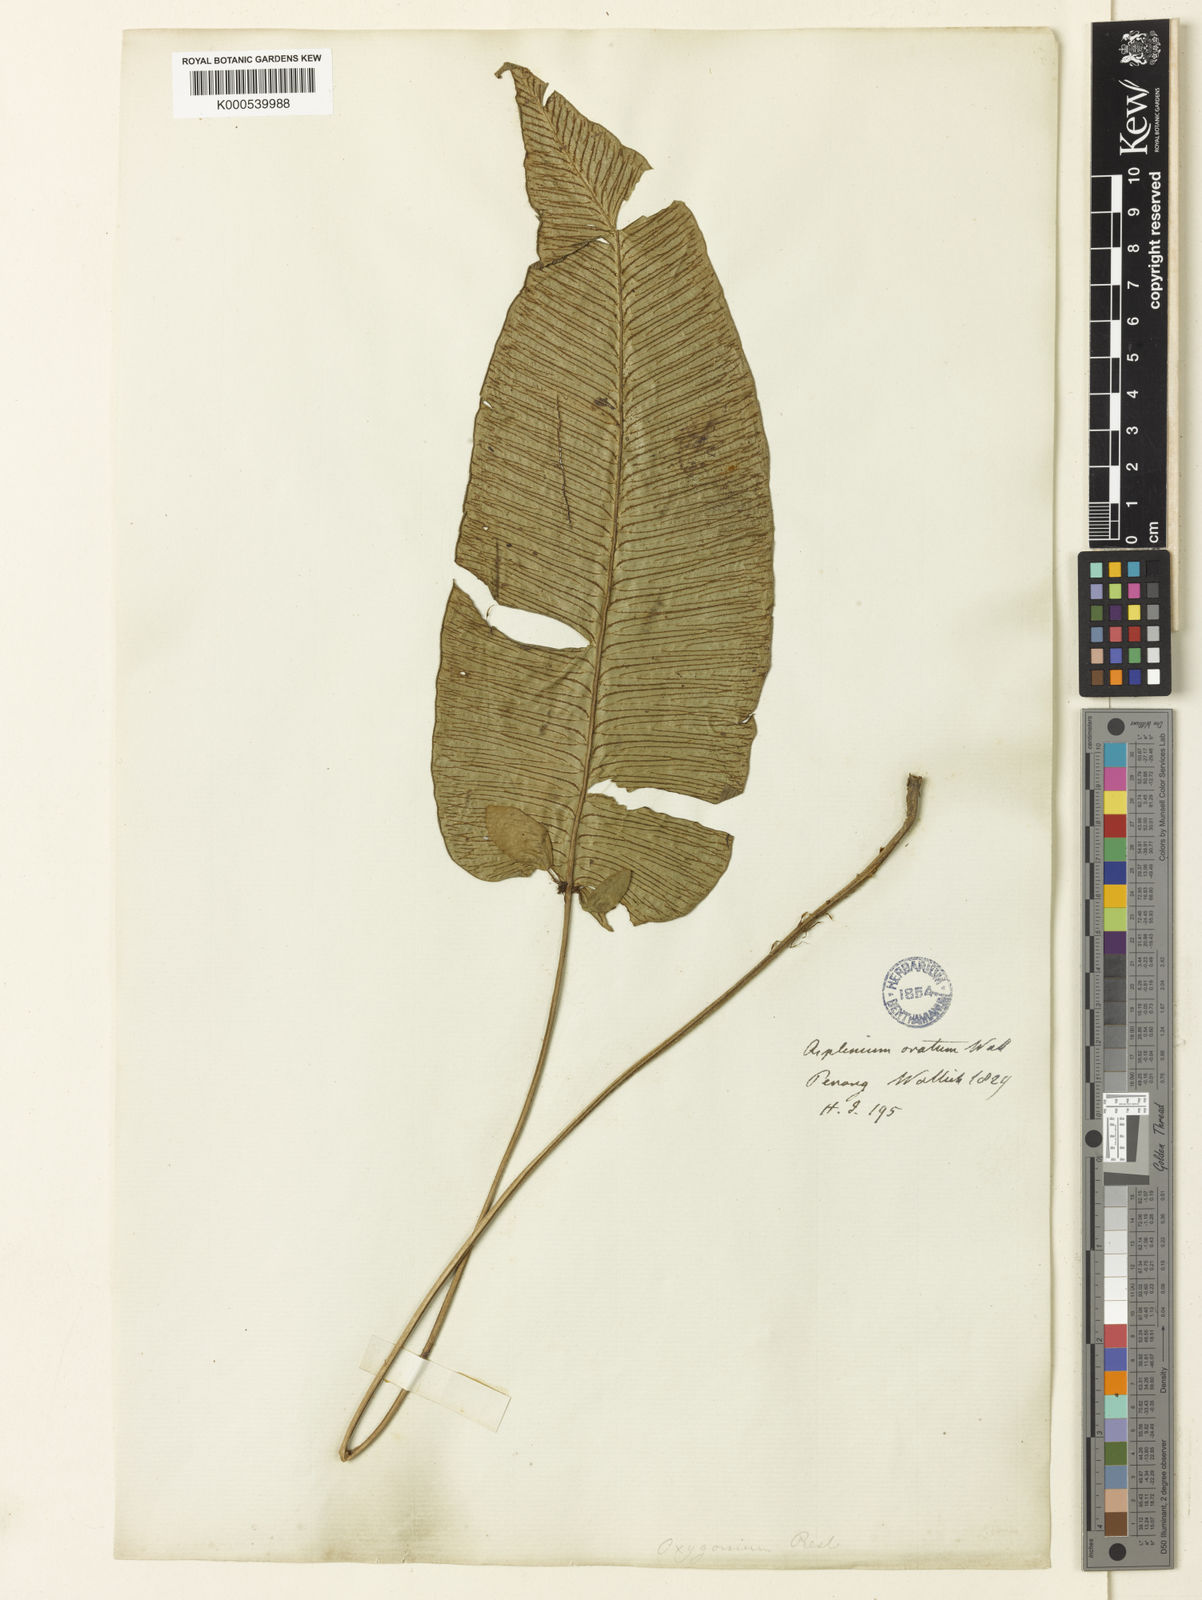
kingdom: Plantae
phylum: Tracheophyta
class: Polypodiopsida
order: Polypodiales
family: Athyriaceae
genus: Diplazium
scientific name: Diplazium cordifolium
